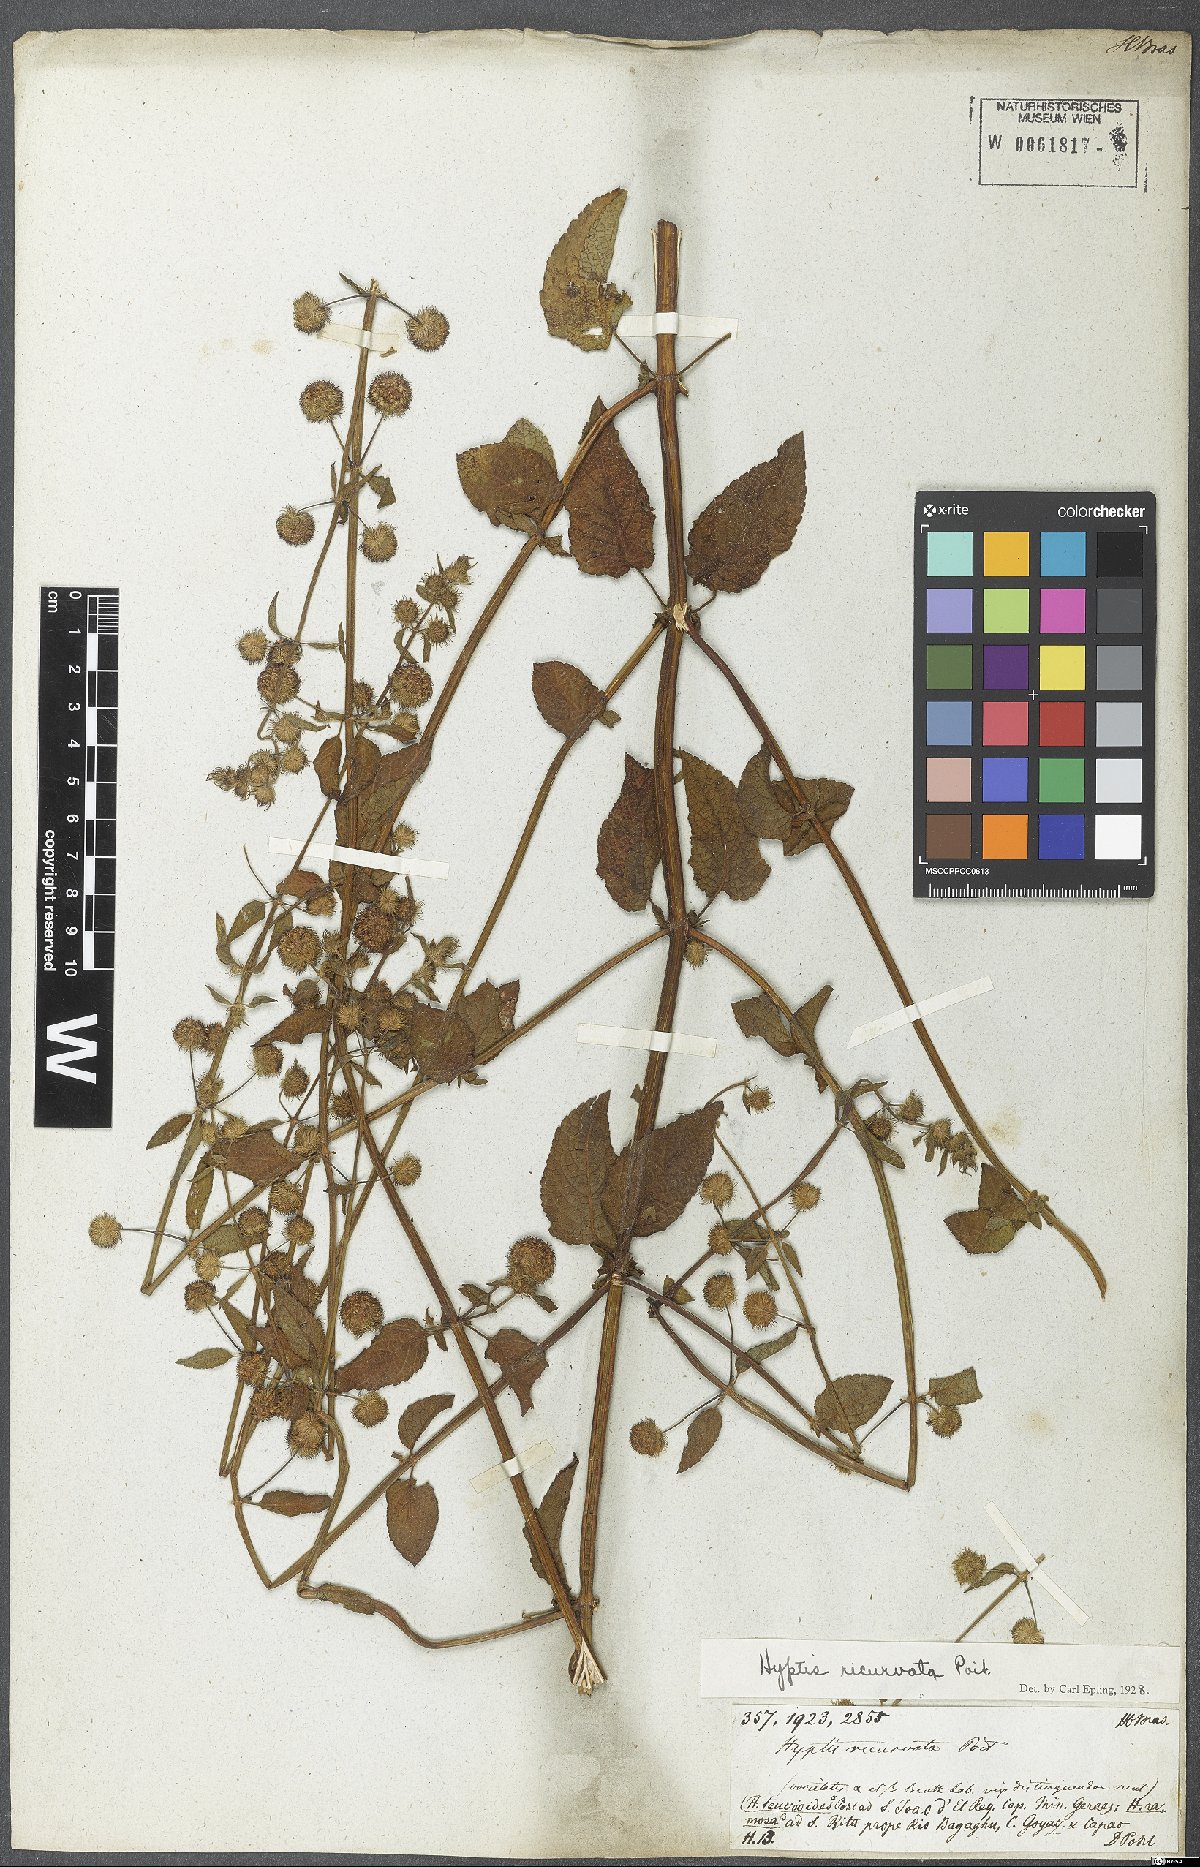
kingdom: Plantae
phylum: Tracheophyta
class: Magnoliopsida
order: Lamiales
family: Lamiaceae
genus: Hyptis
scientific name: Hyptis recurvata
